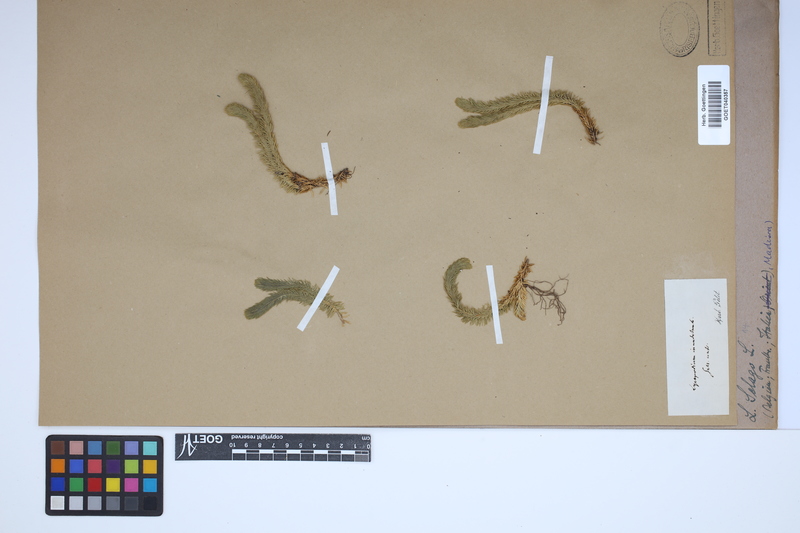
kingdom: Plantae
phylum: Tracheophyta
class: Lycopodiopsida
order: Lycopodiales
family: Lycopodiaceae
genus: Huperzia
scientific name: Huperzia selago
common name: Northern firmoss
